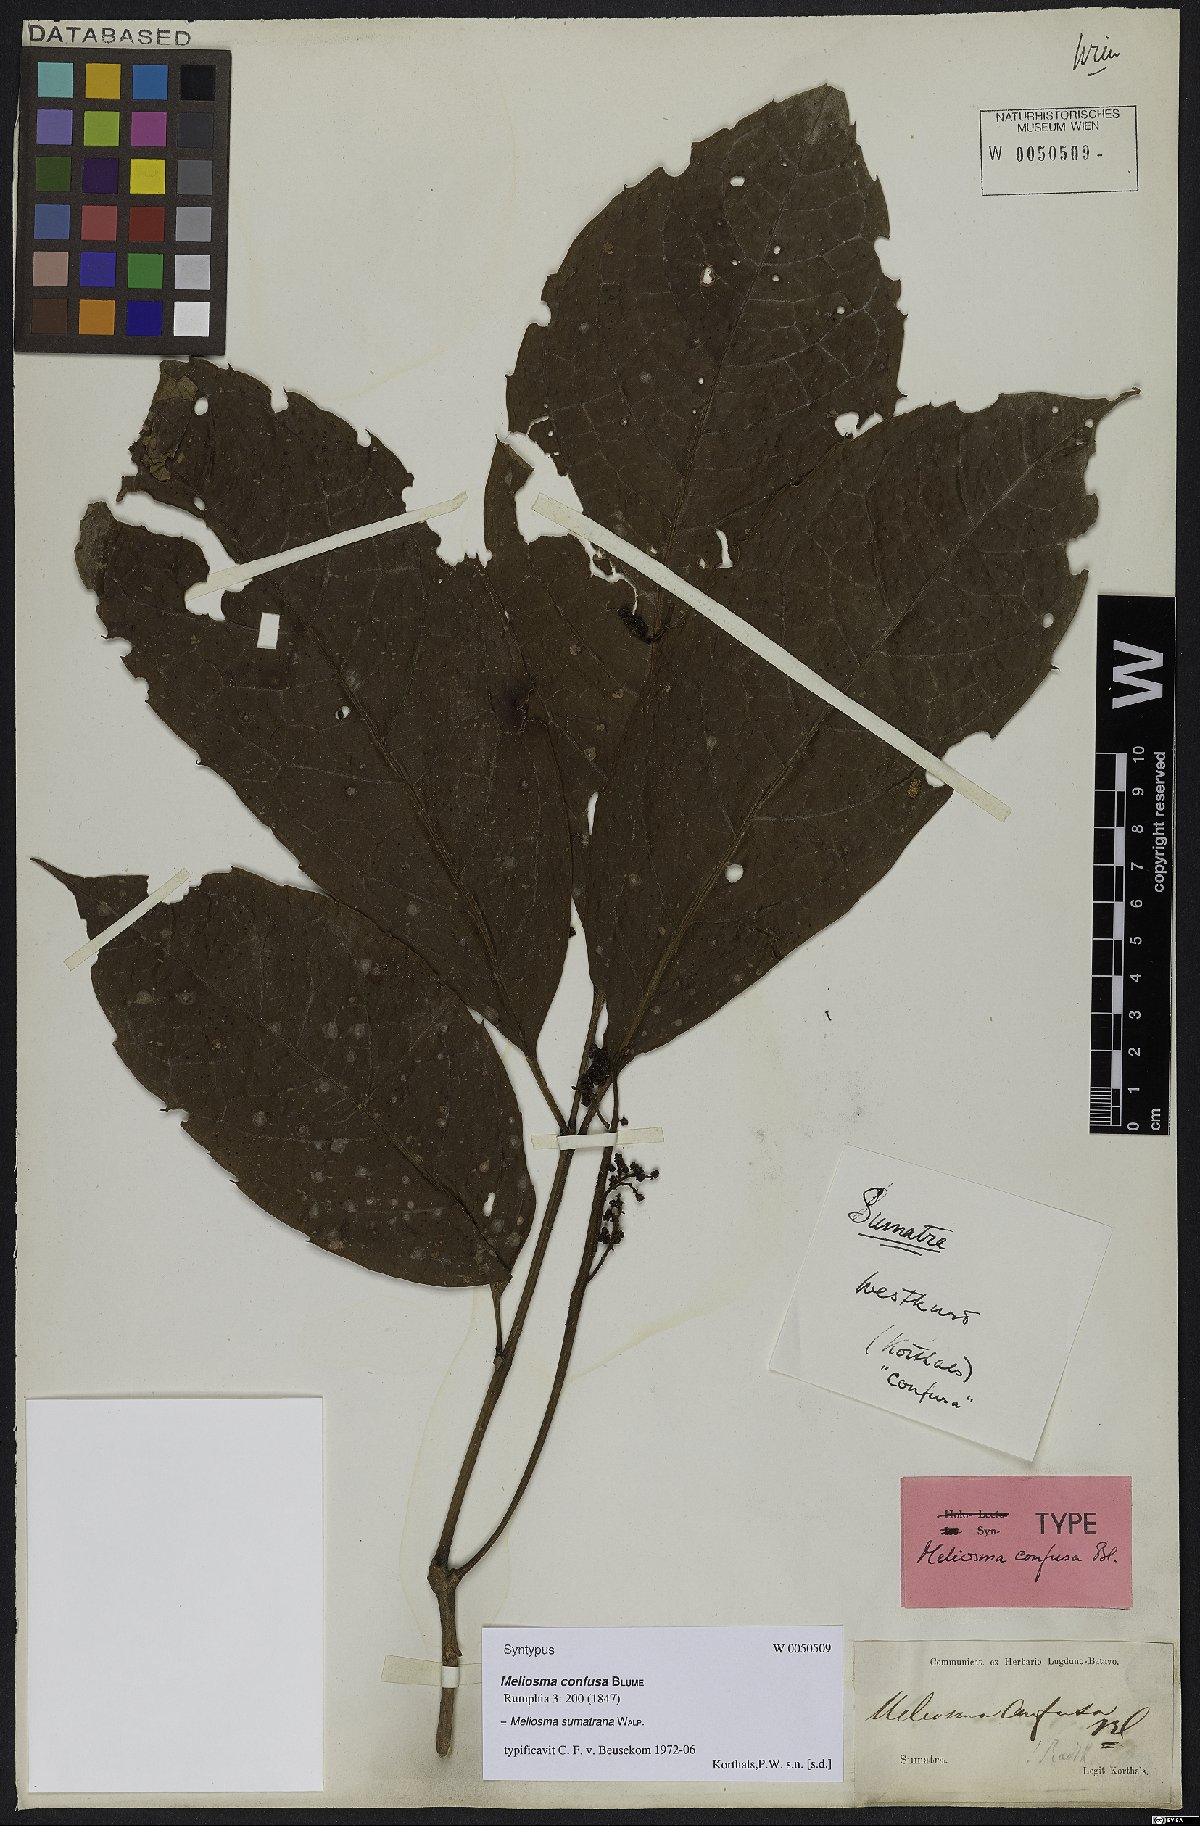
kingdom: Plantae
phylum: Tracheophyta
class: Magnoliopsida
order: Proteales
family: Sabiaceae
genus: Meliosma
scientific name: Meliosma sumatrana
